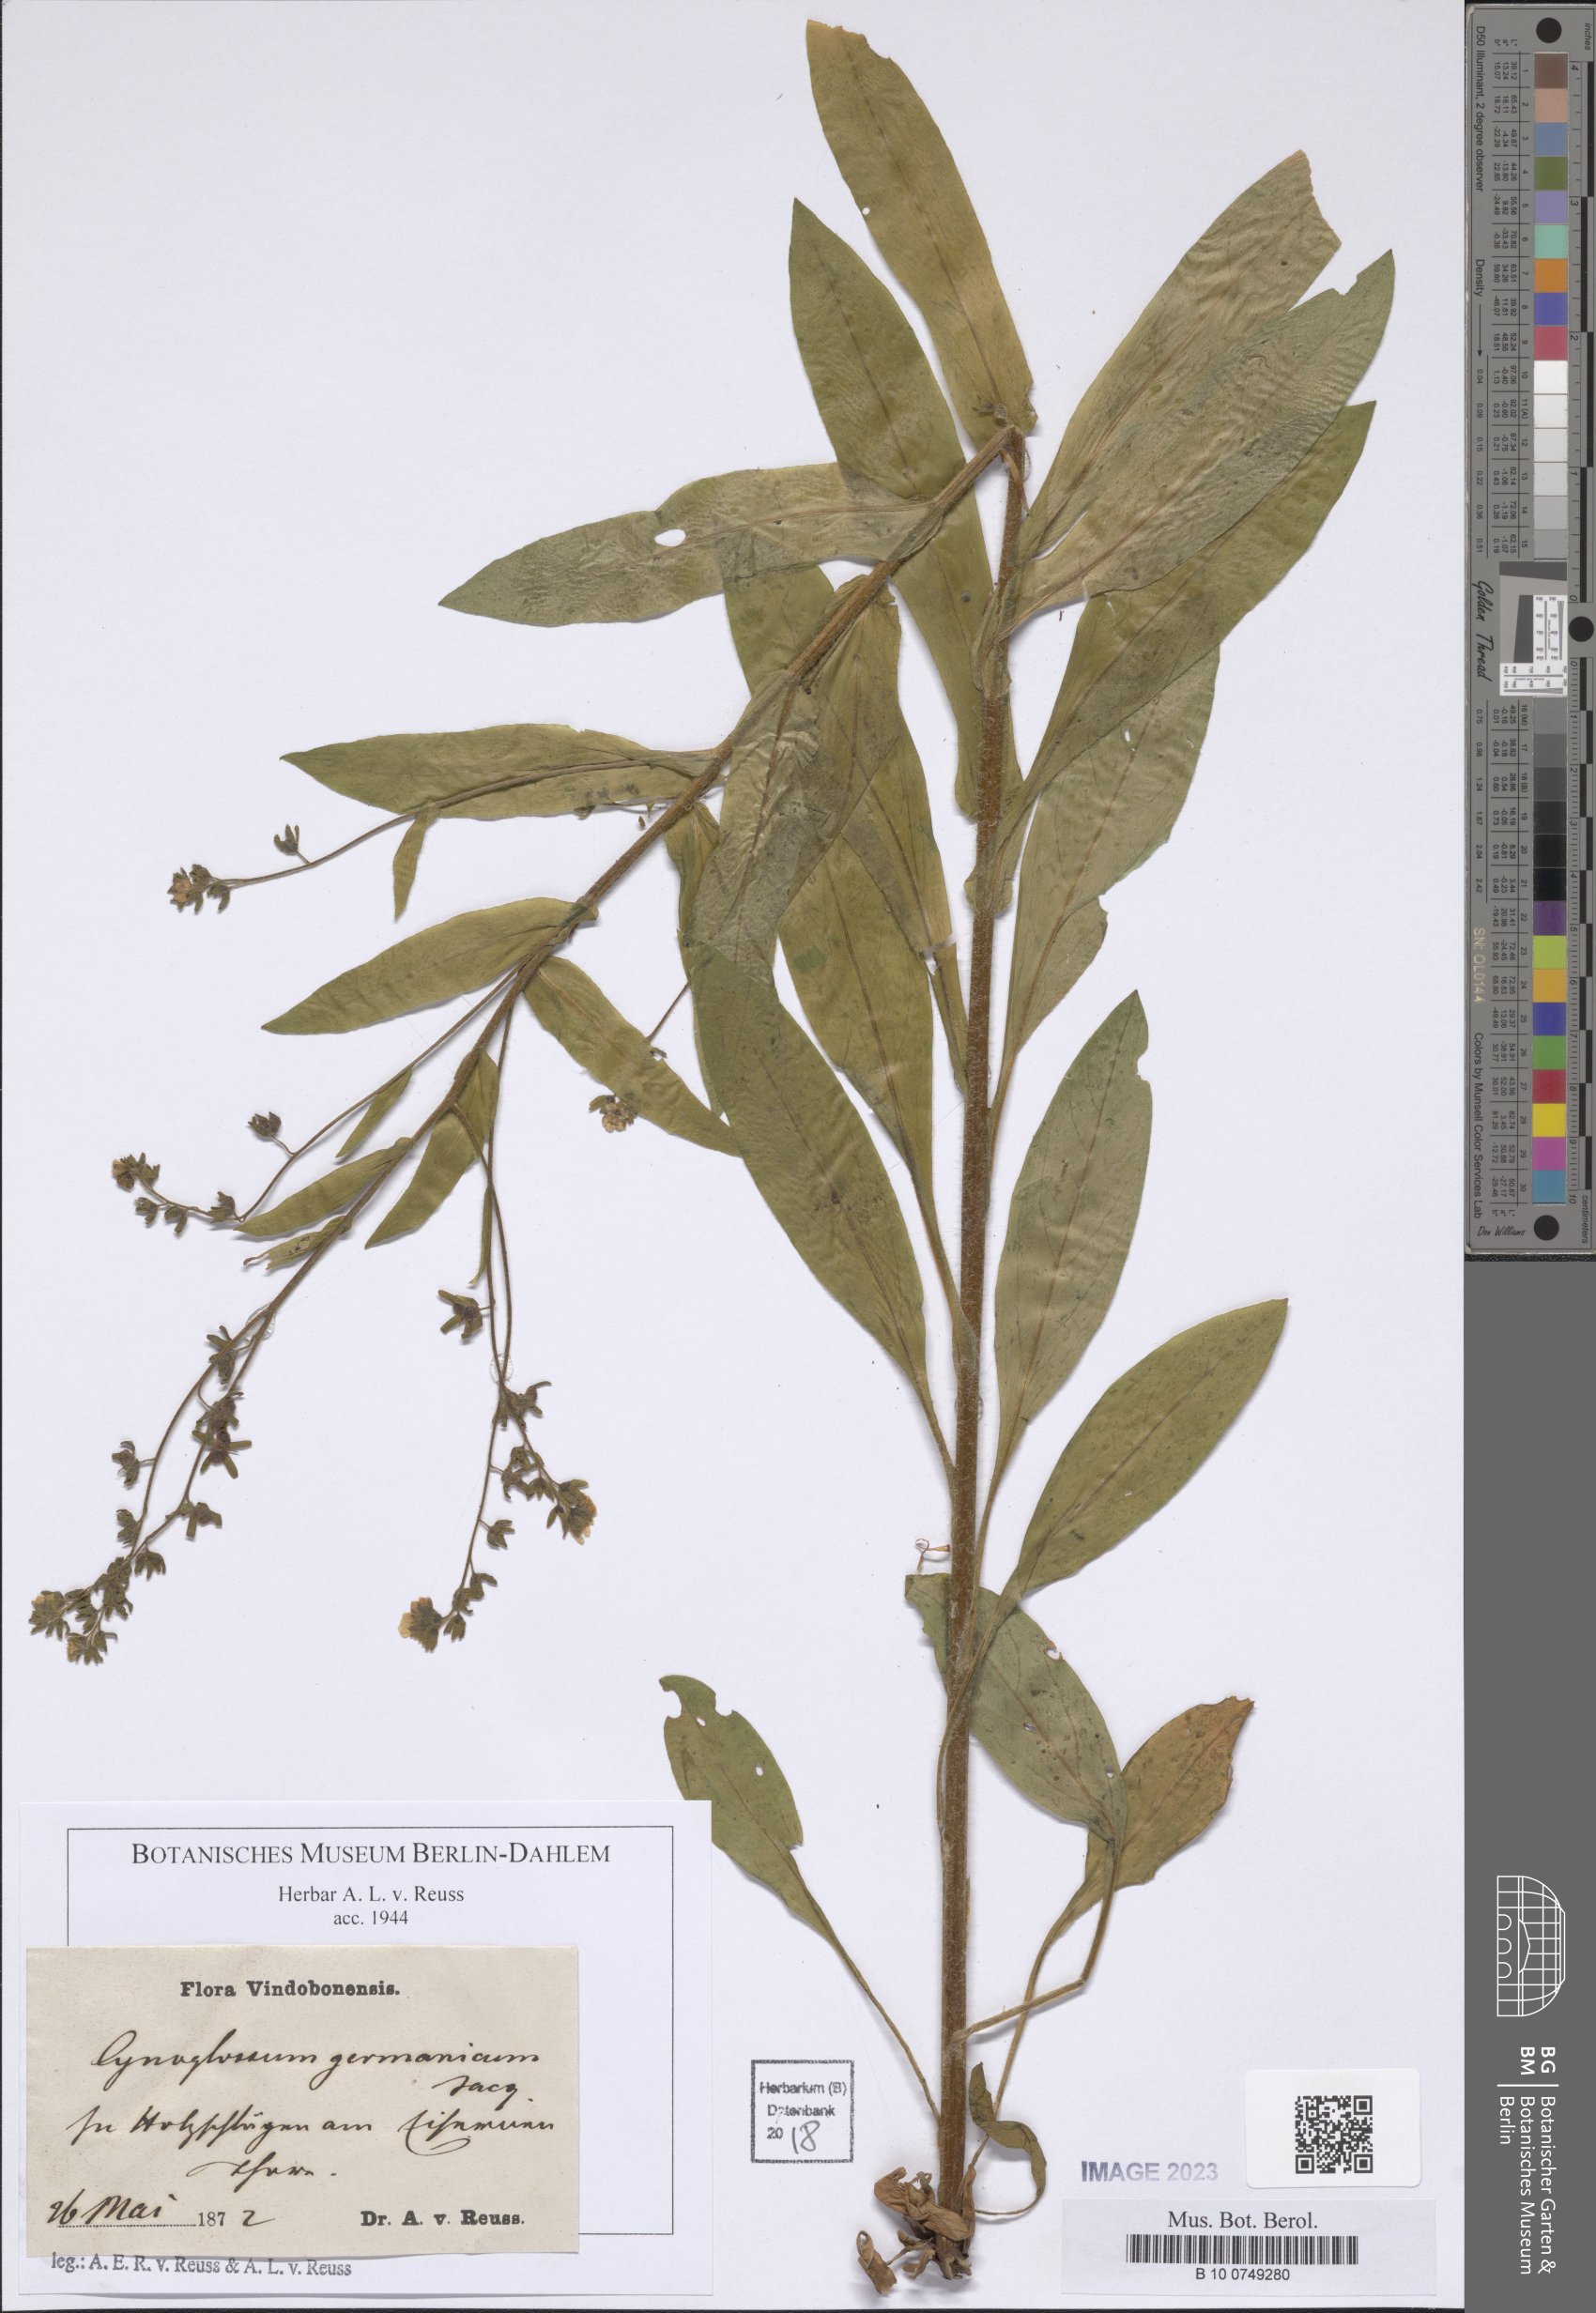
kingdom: Plantae
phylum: Tracheophyta
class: Magnoliopsida
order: Boraginales
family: Boraginaceae
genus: Cynoglossum
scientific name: Cynoglossum germanicum
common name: Green hound's-tongue
